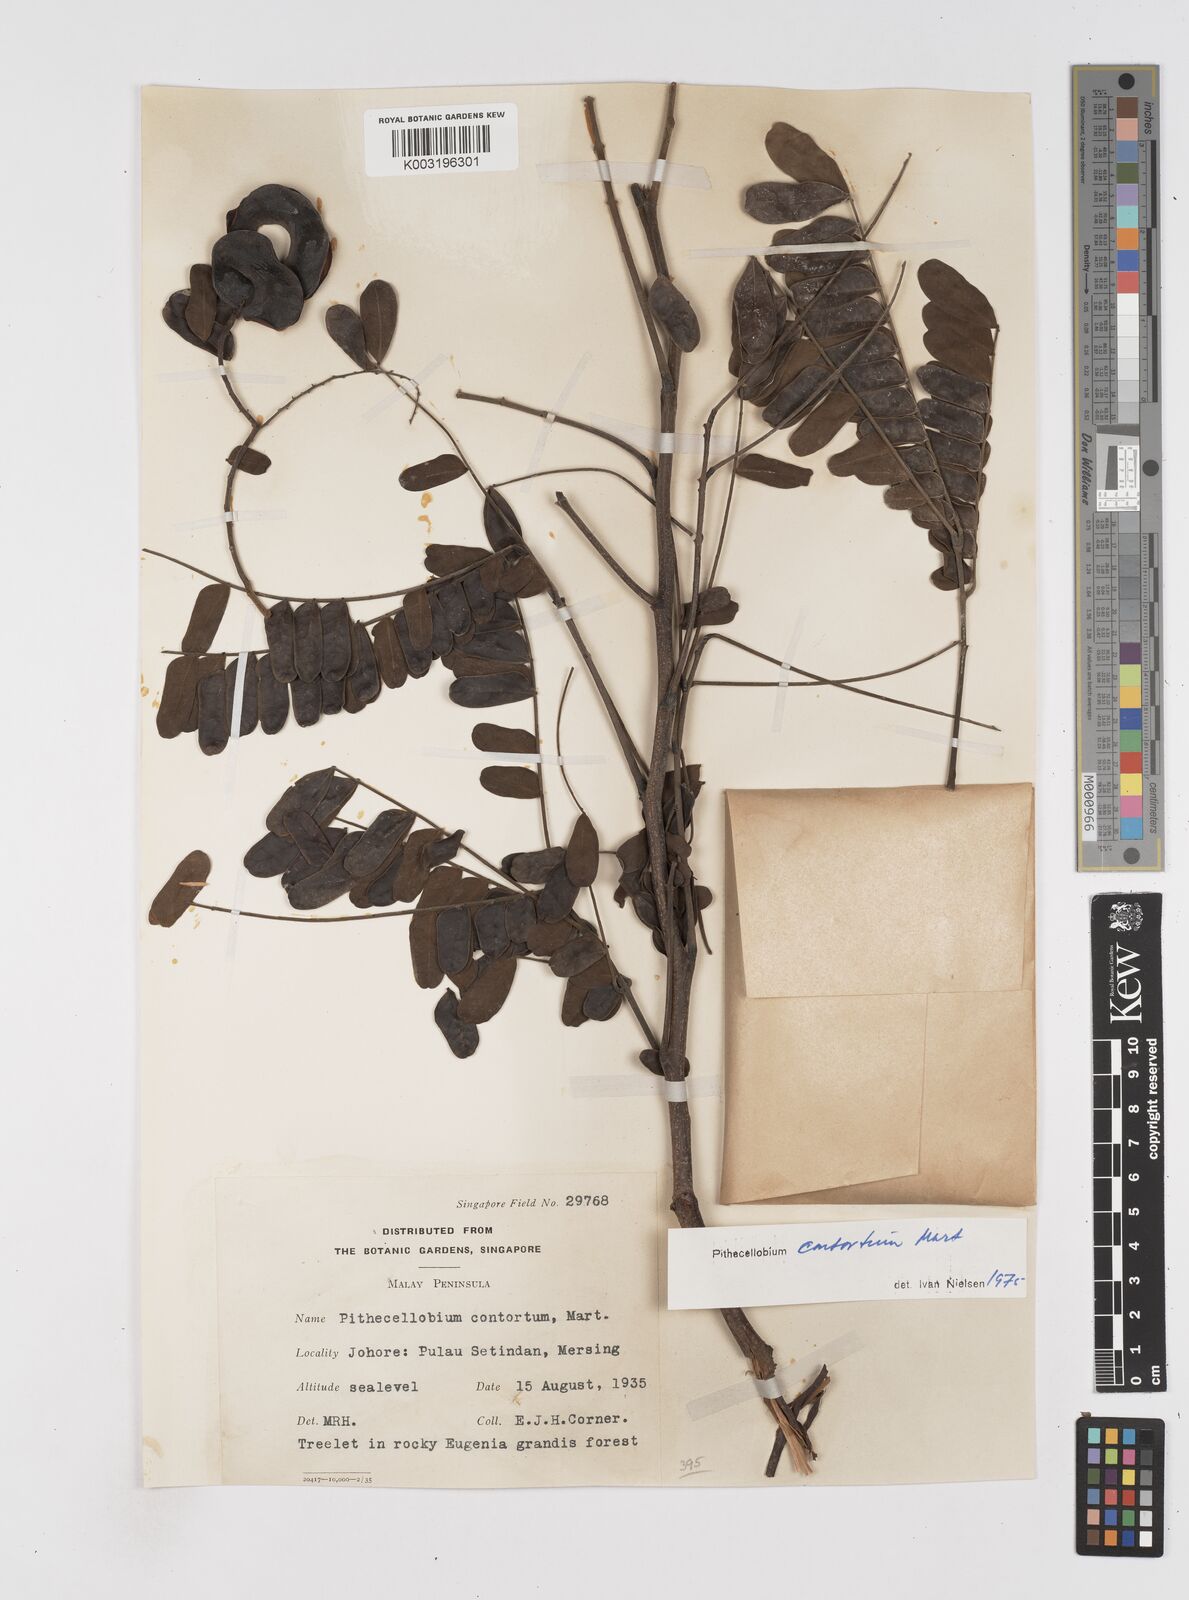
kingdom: Plantae
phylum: Tracheophyta
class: Magnoliopsida
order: Fabales
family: Fabaceae
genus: Archidendron
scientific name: Archidendron contortum
